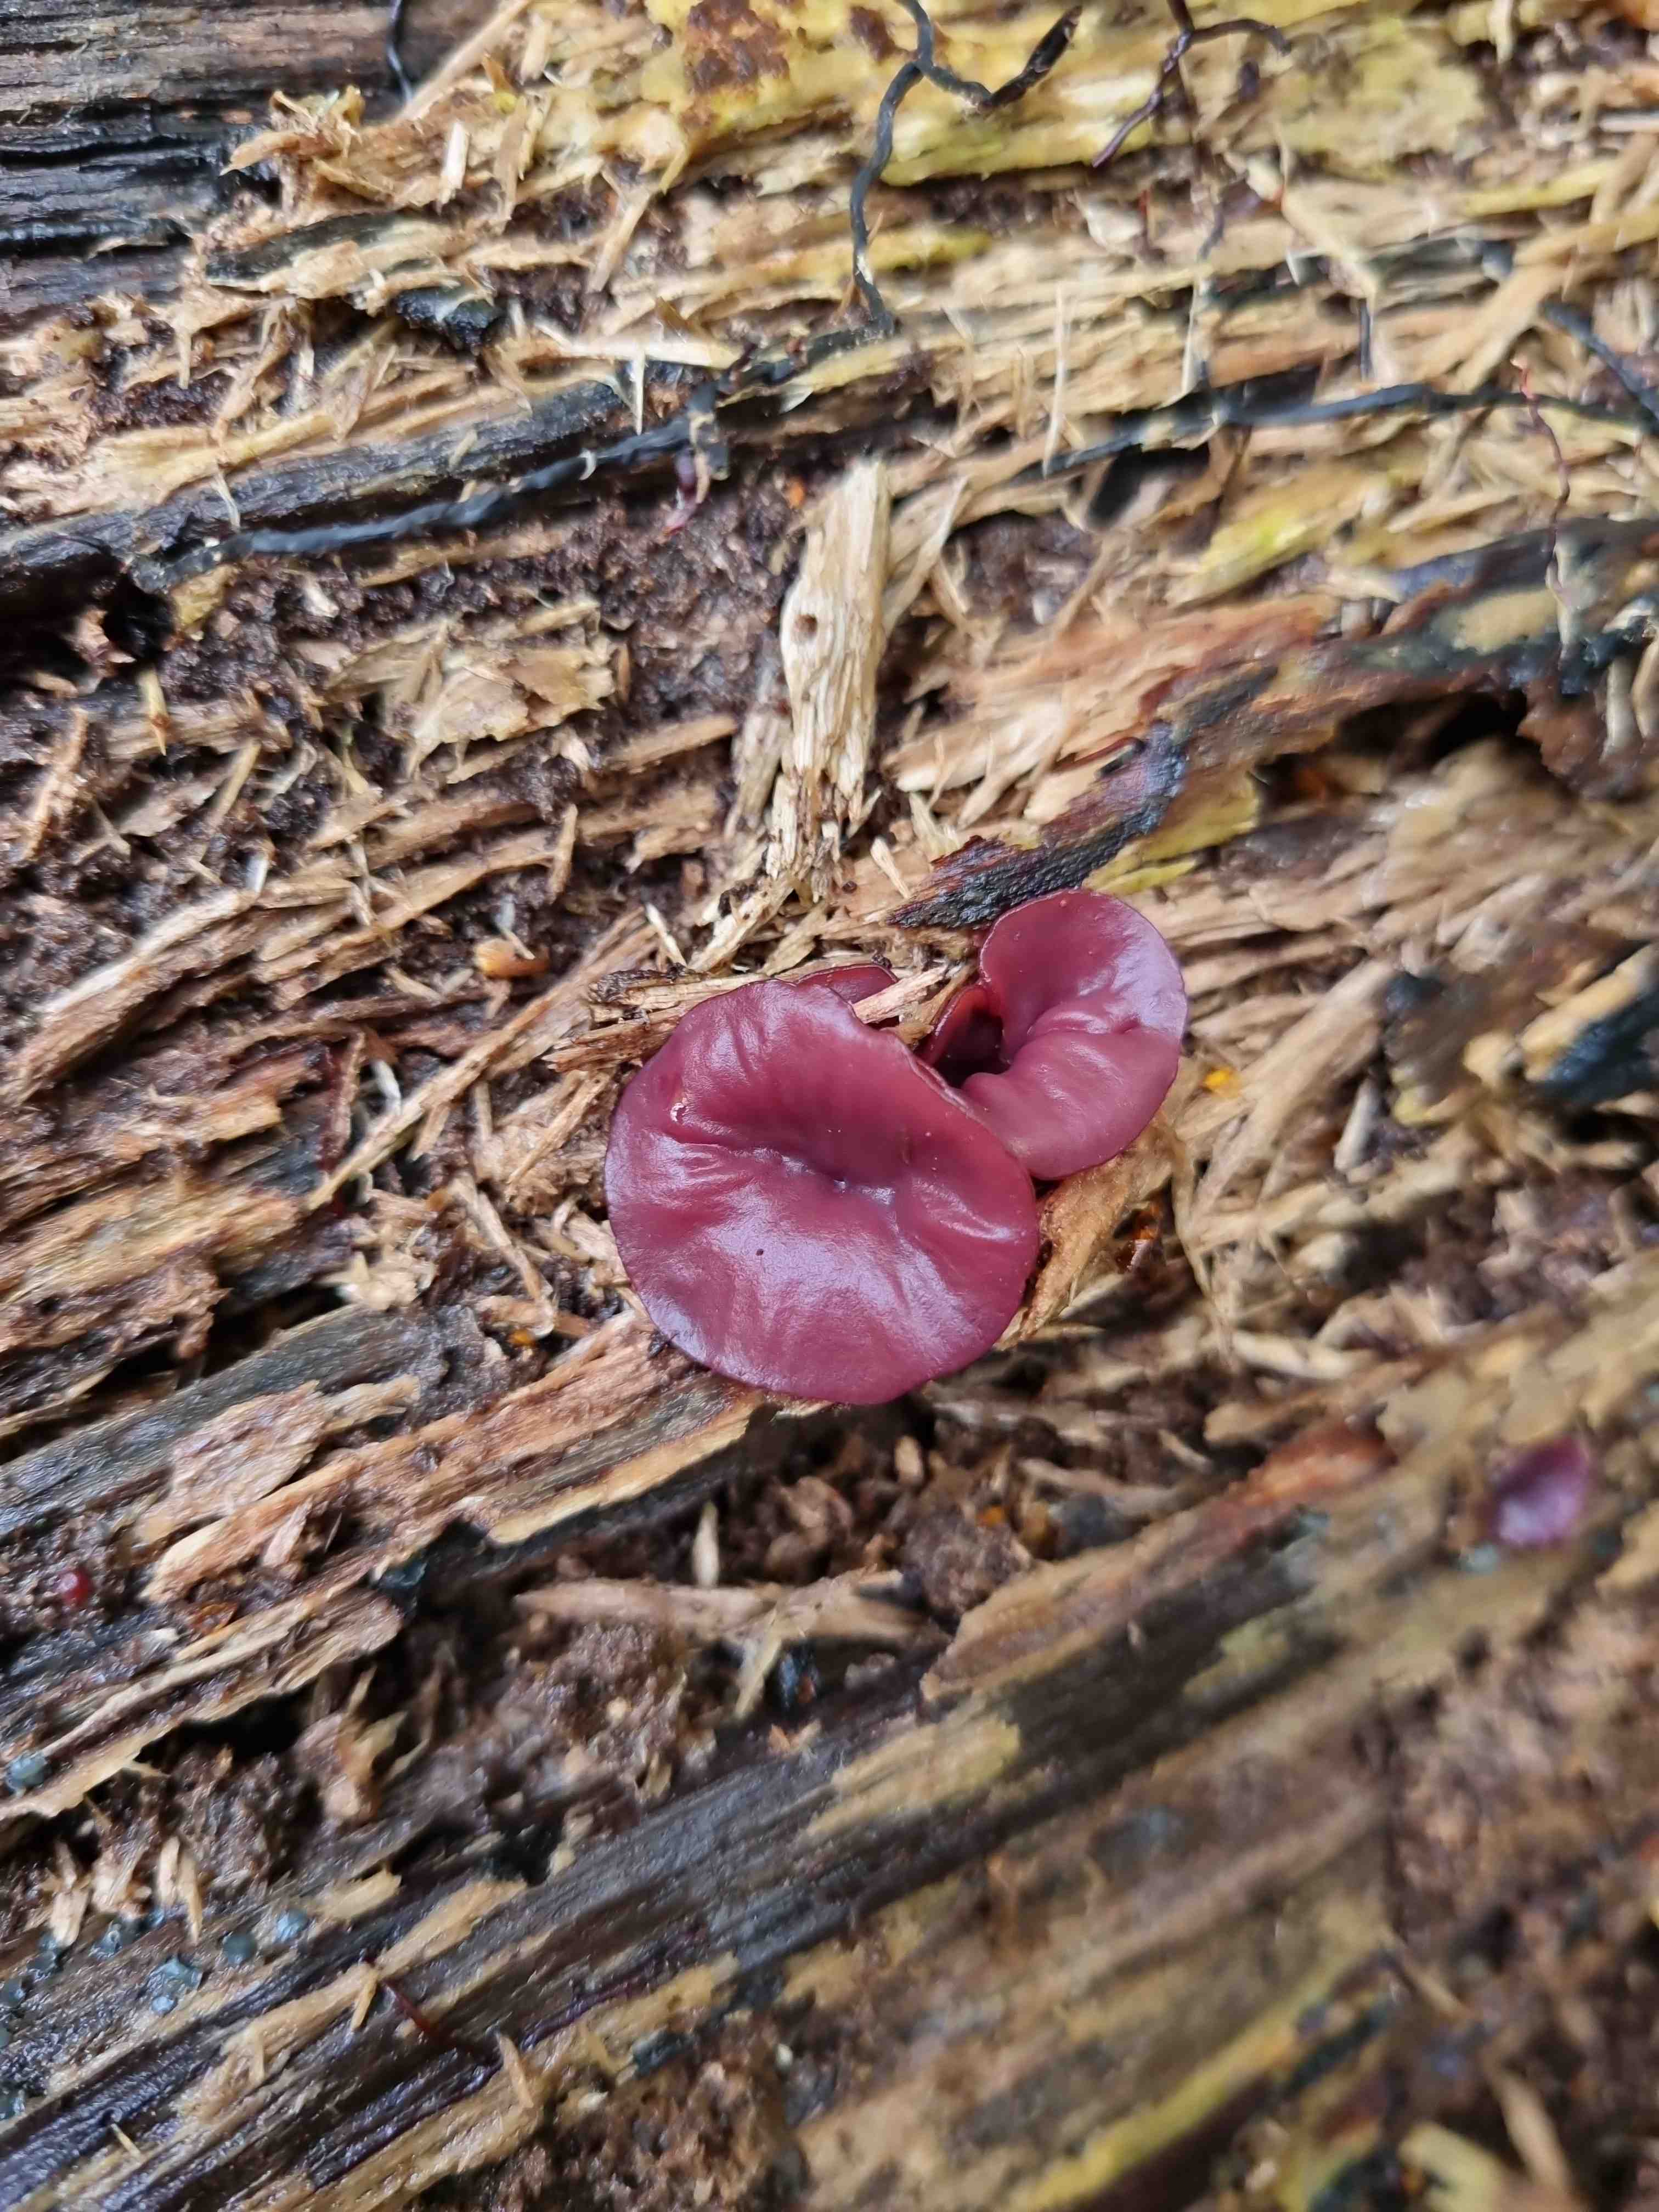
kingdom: Fungi
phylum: Ascomycota
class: Leotiomycetes
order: Helotiales
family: Gelatinodiscaceae
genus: Ascocoryne
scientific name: Ascocoryne cylichnium
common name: stor sejskive
